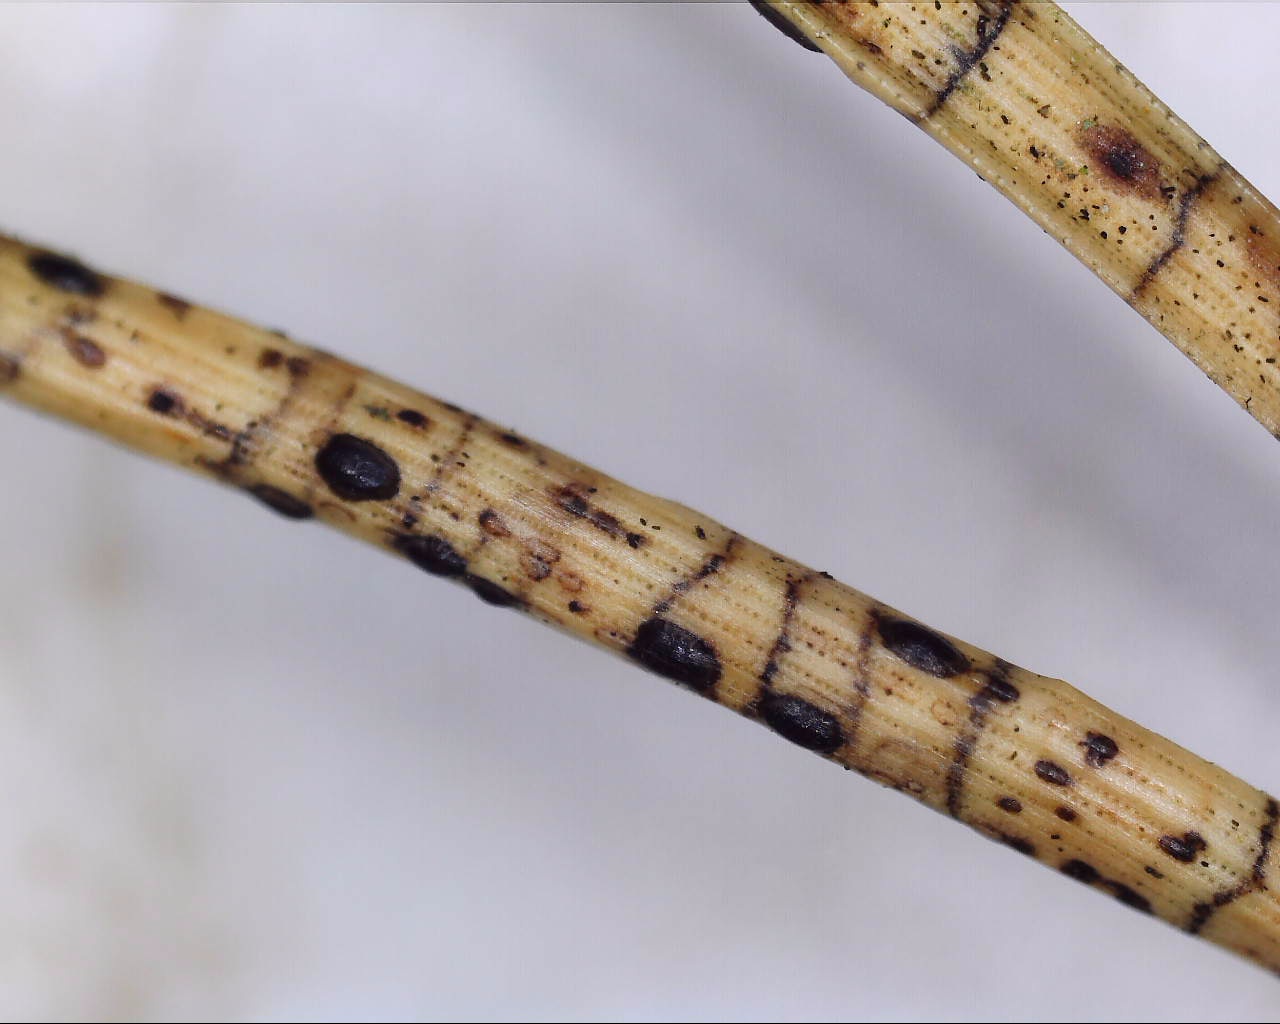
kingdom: Fungi
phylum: Ascomycota
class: Leotiomycetes
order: Rhytismatales
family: Rhytismataceae
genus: Lophodermium
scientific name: Lophodermium pinastri
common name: fyrre-fureplet
